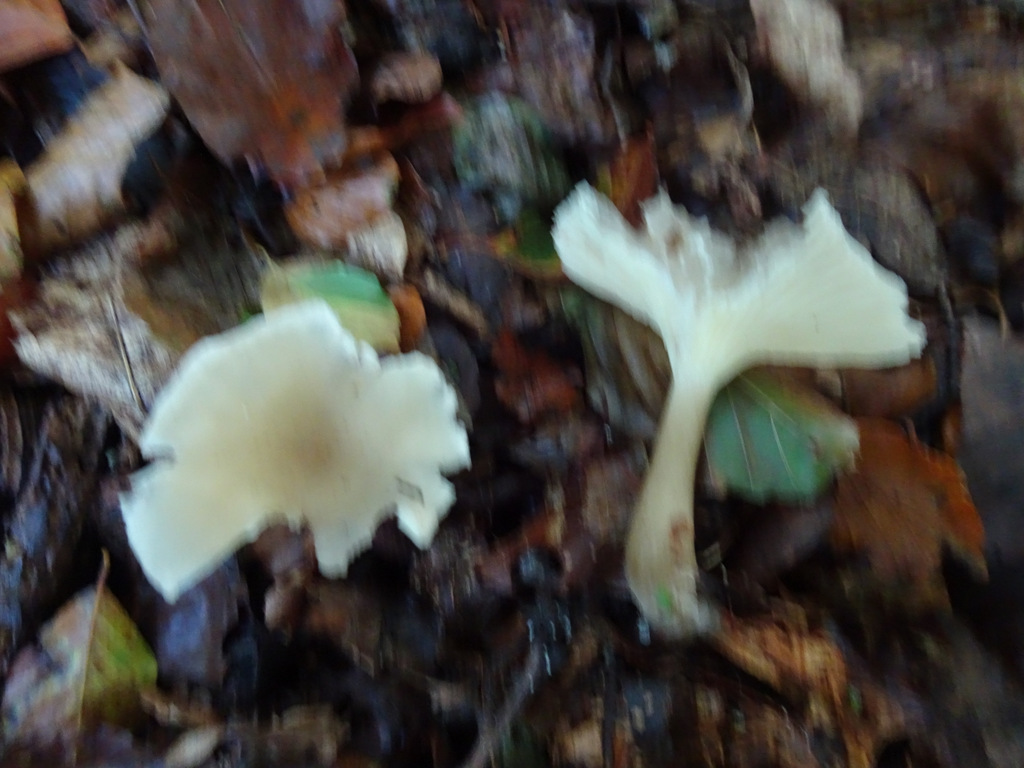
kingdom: Fungi
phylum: Basidiomycota
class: Agaricomycetes
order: Agaricales
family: Tricholomataceae
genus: Infundibulicybe
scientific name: Infundibulicybe gibba
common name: almindelig tragthat
